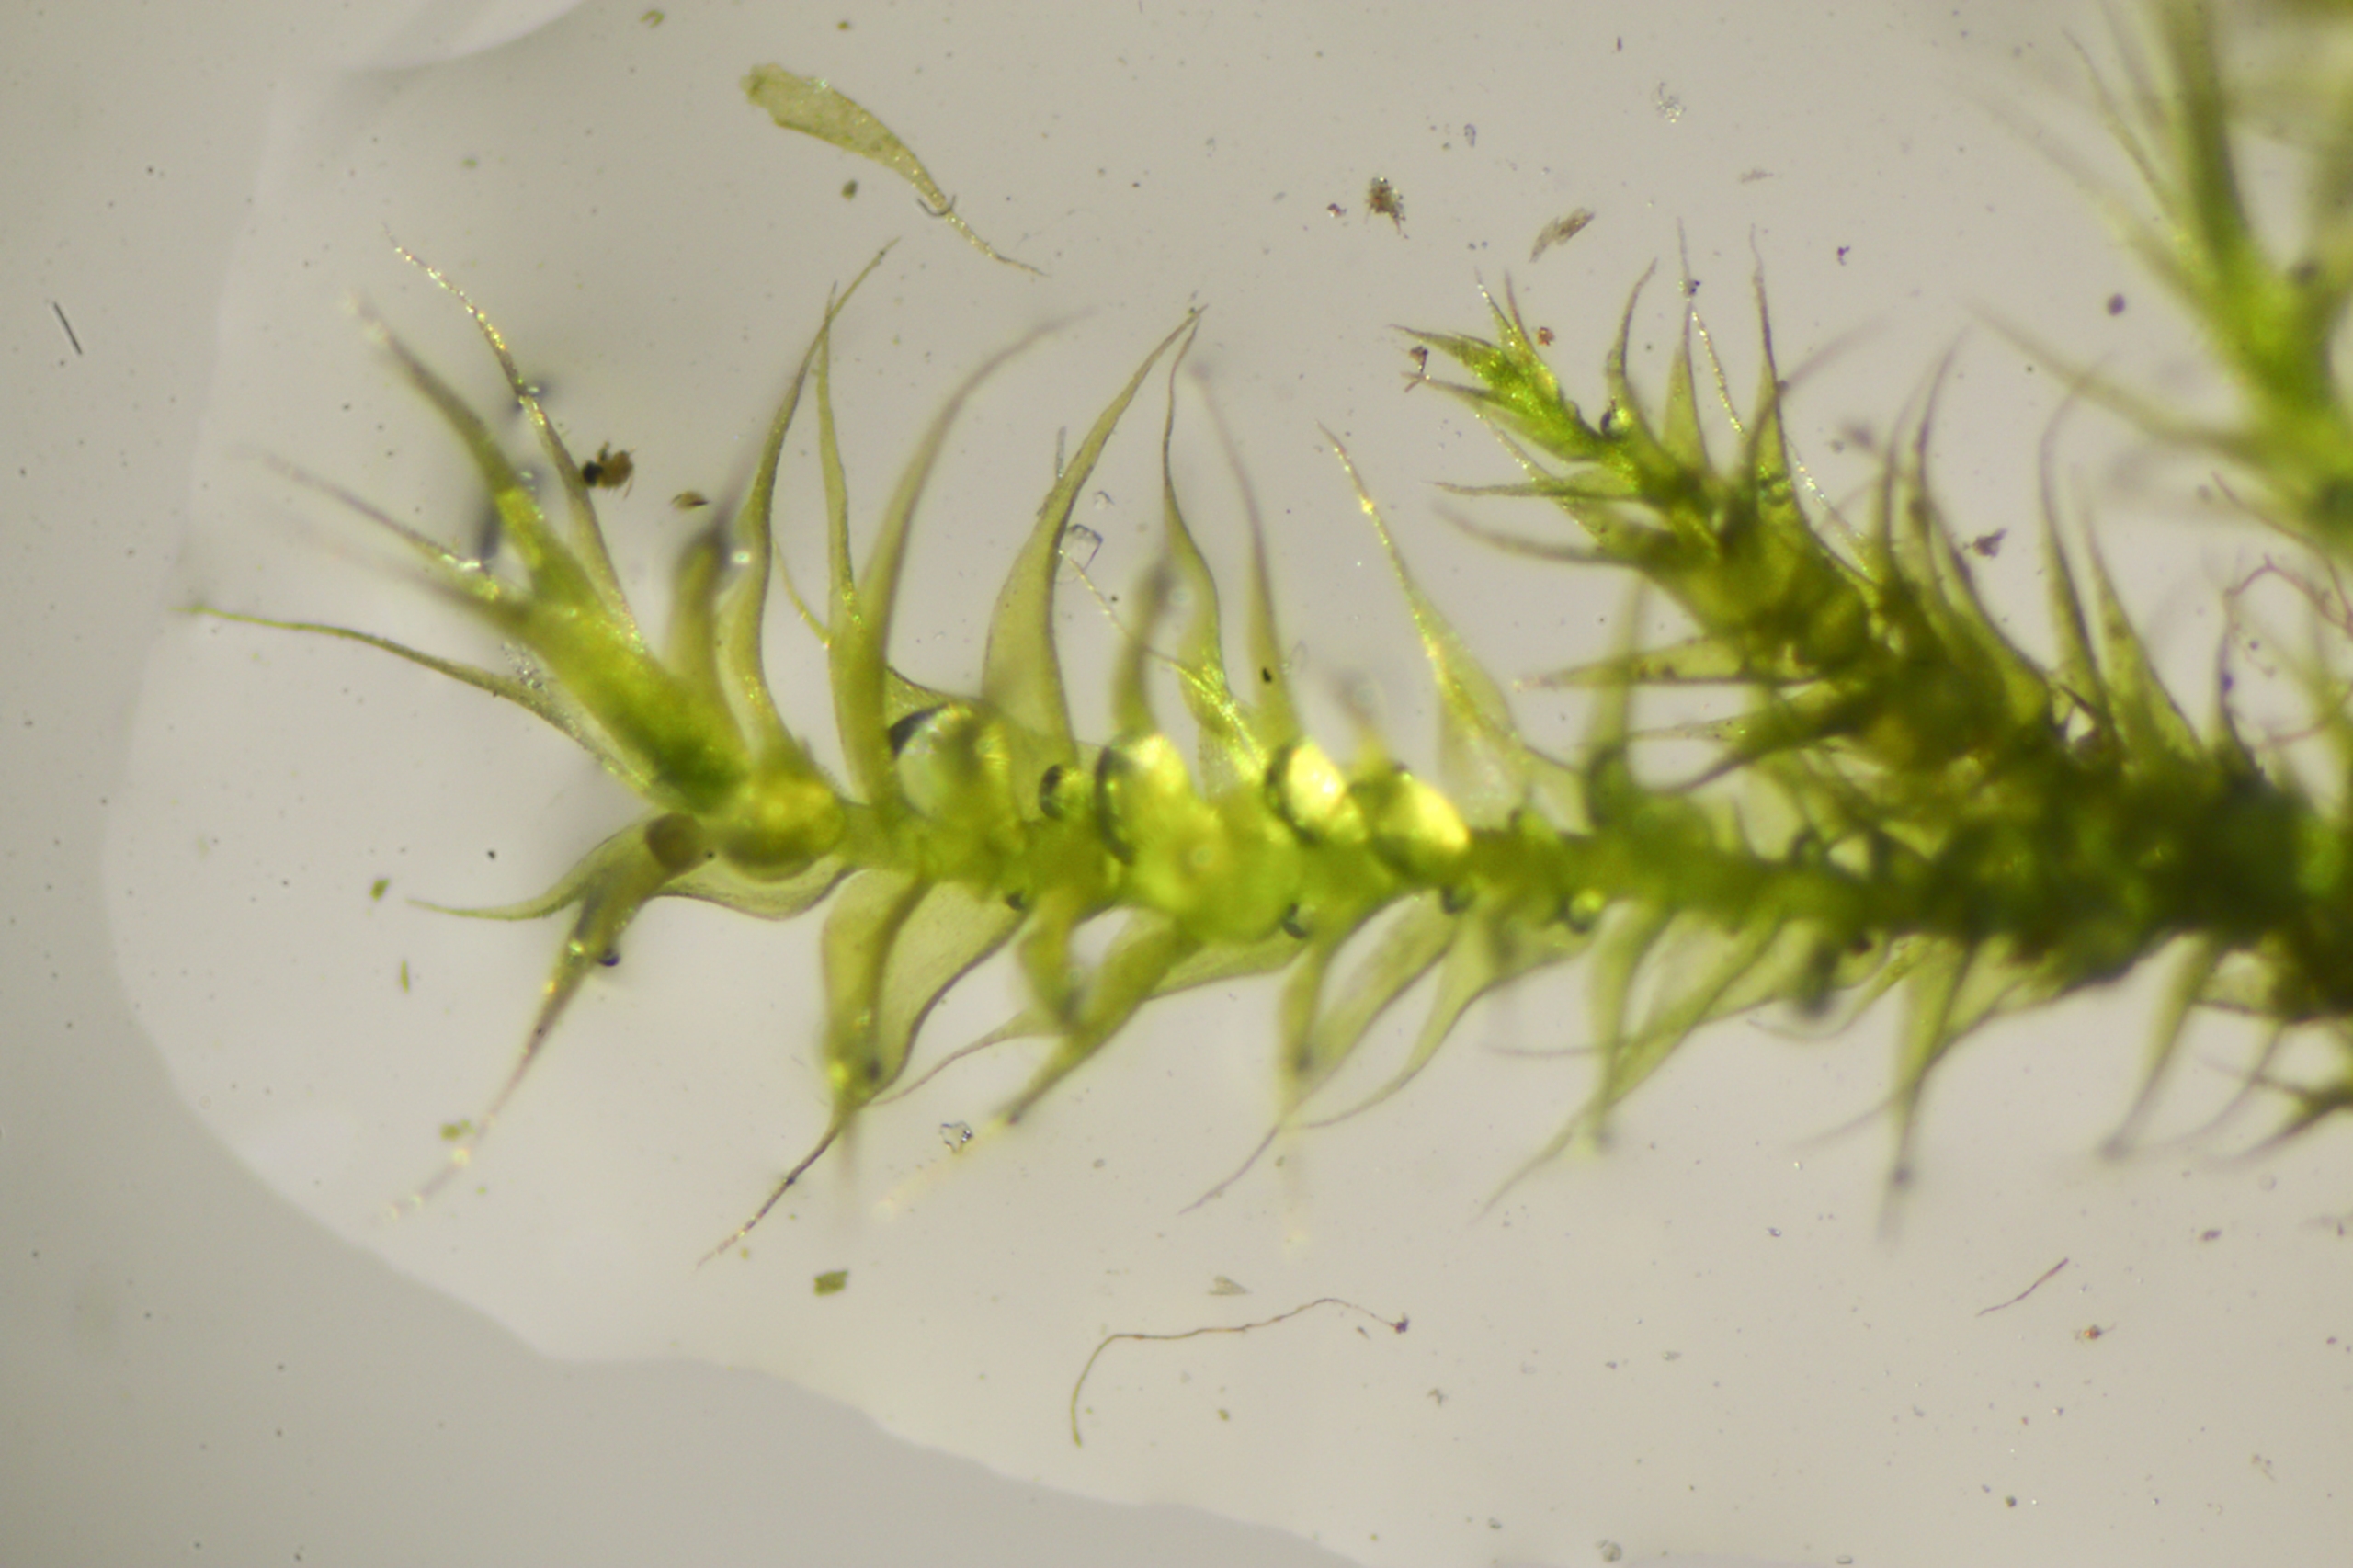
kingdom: Plantae
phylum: Bryophyta
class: Bryopsida
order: Hypnales
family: Amblystegiaceae
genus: Campylophyllopsis
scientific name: Campylophyllopsis calcarea
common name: Kalk-guldstjernemos
